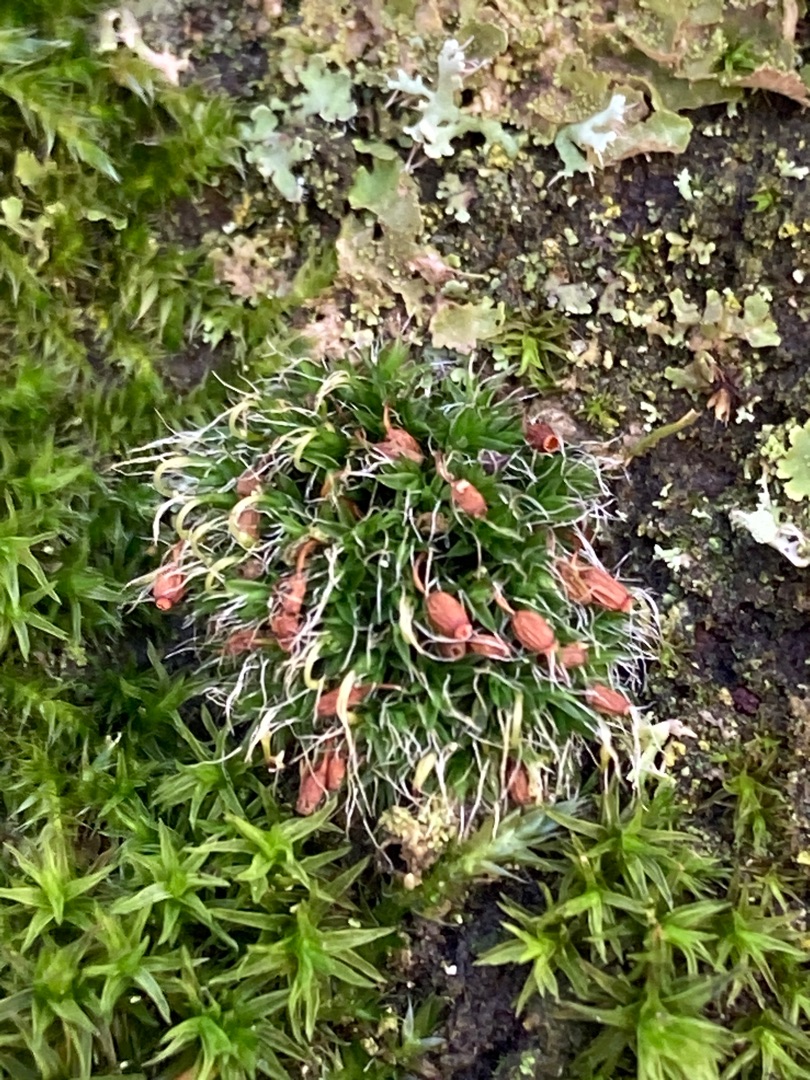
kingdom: Plantae
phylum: Bryophyta
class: Bryopsida
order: Grimmiales
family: Grimmiaceae
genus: Grimmia
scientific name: Grimmia pulvinata
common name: Pude-gråmos
